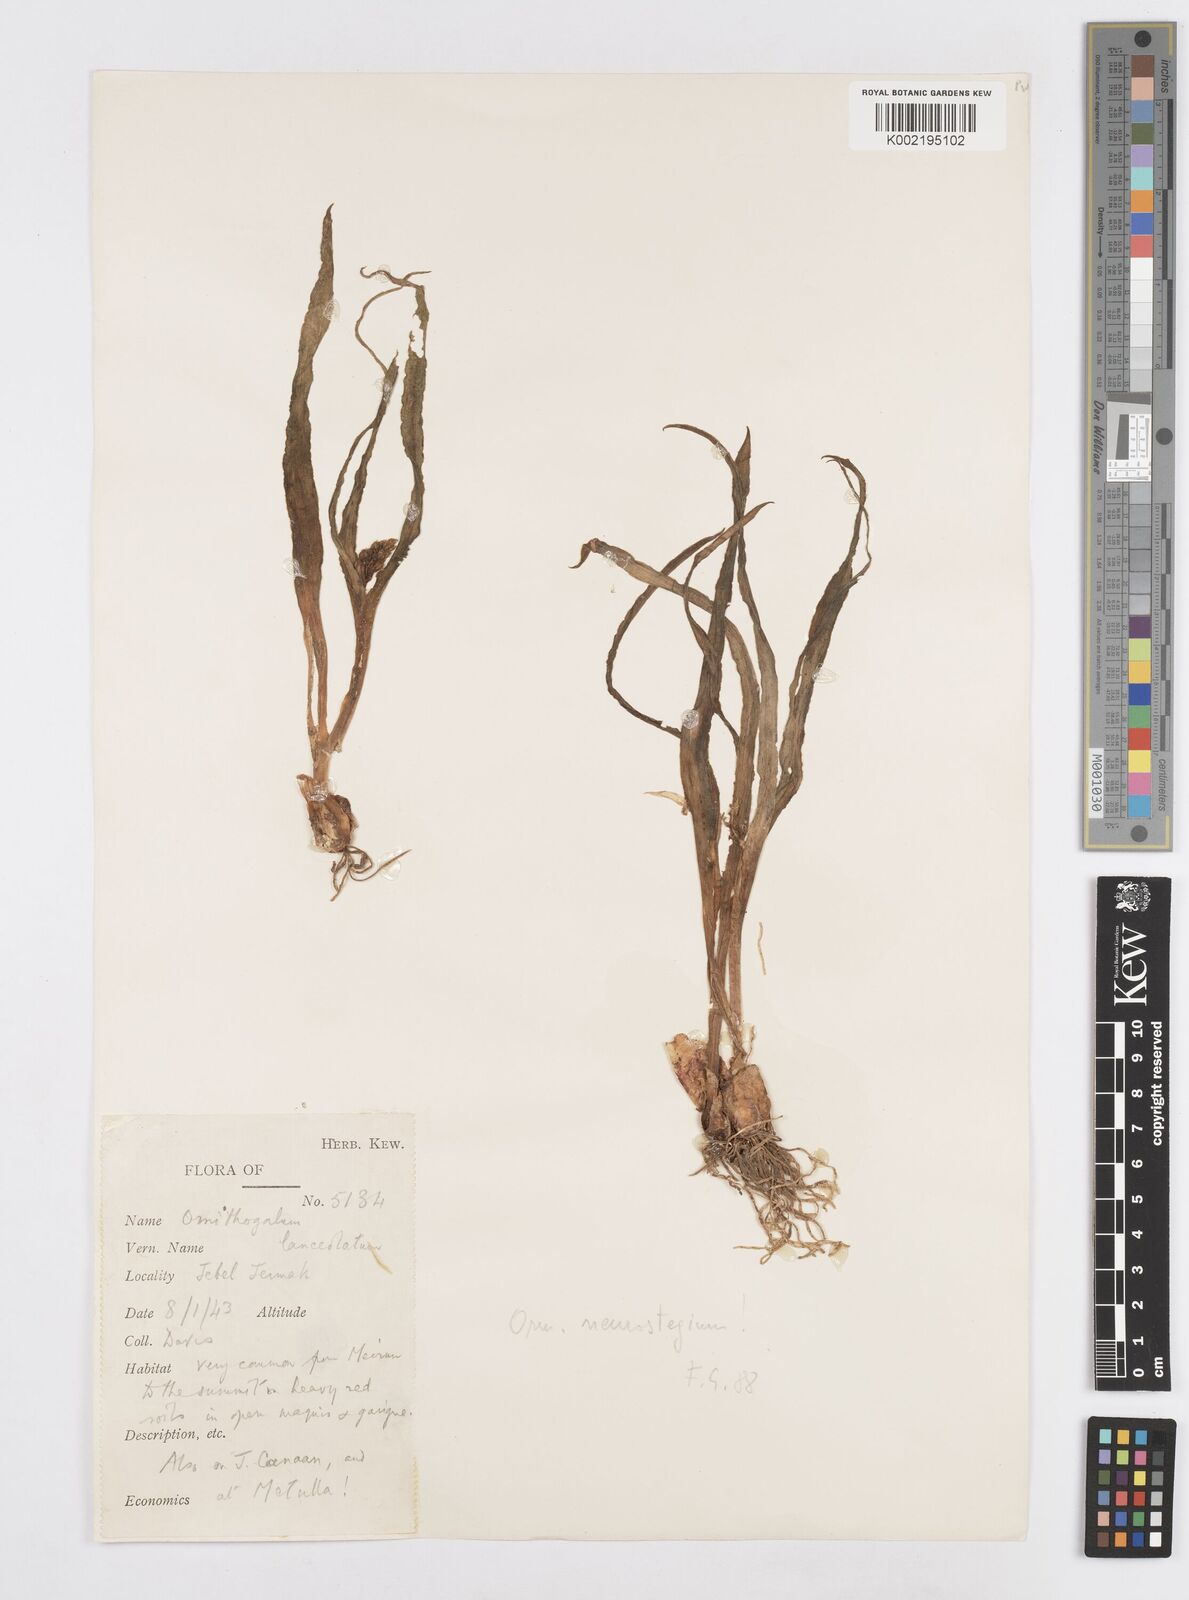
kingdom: Plantae
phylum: Tracheophyta
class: Liliopsida
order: Asparagales
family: Asparagaceae
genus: Ornithogalum
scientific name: Ornithogalum lanceolatum
